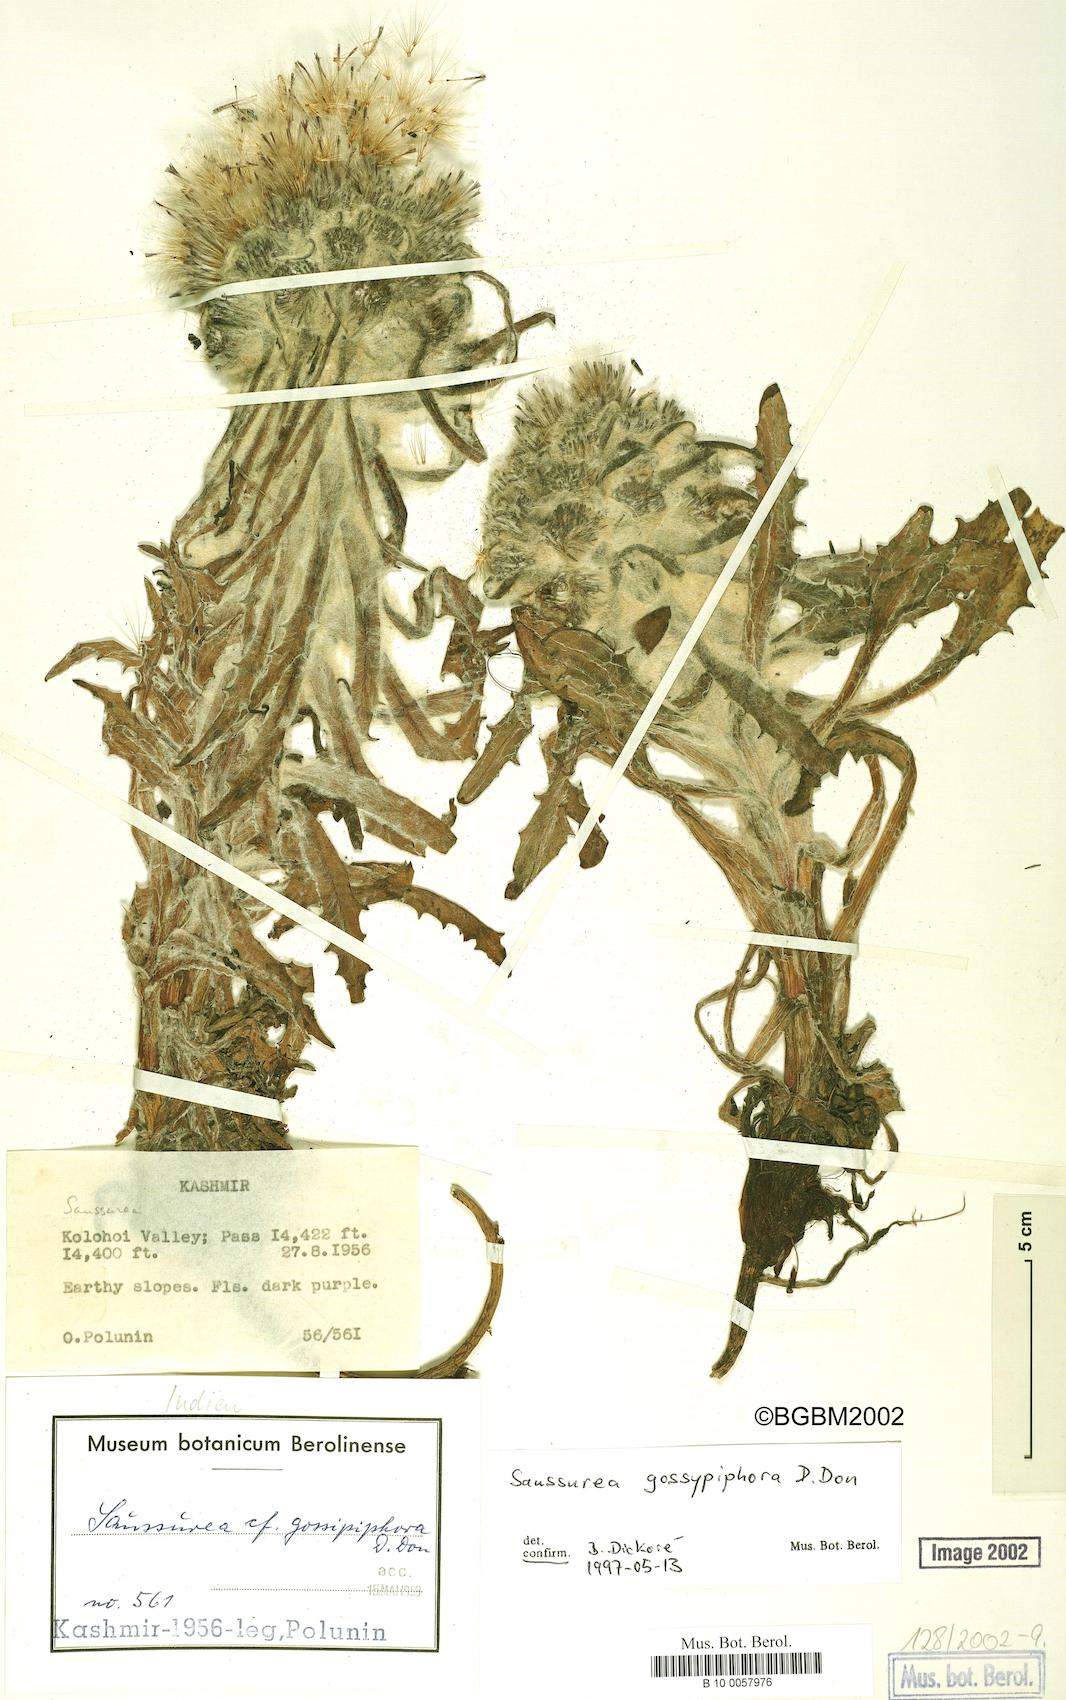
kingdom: Plantae
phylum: Tracheophyta
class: Magnoliopsida
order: Asterales
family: Asteraceae
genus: Saussurea
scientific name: Saussurea gossypiphora
